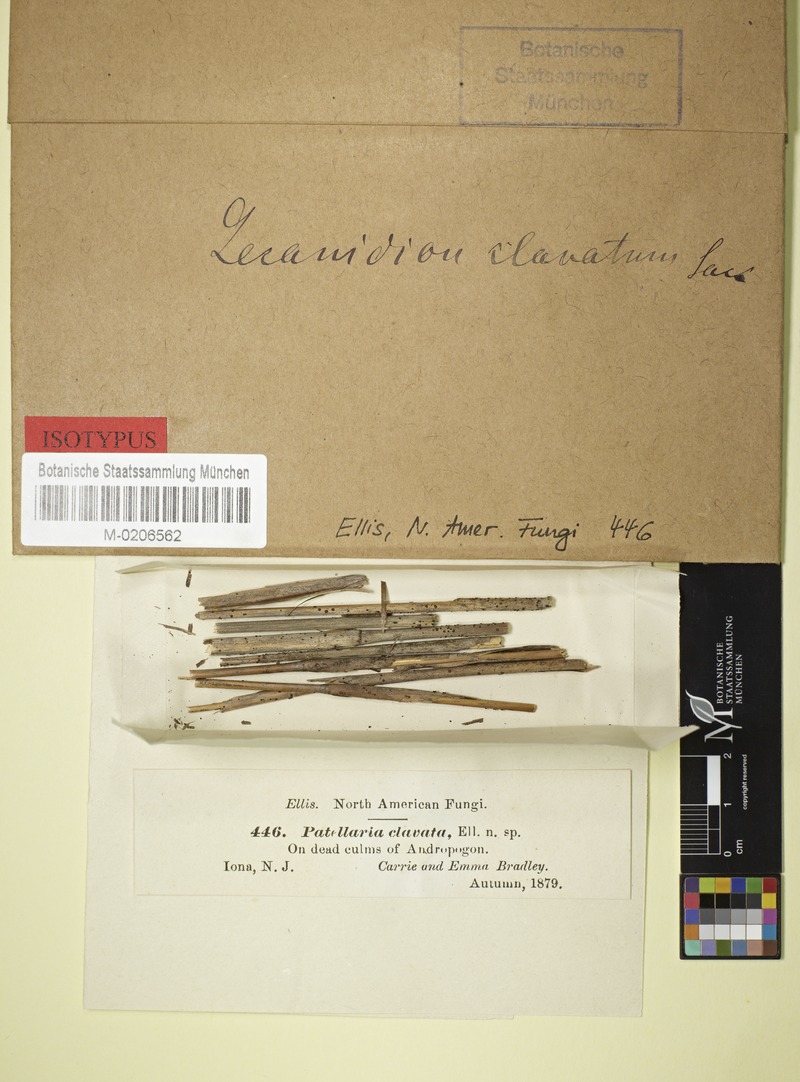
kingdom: Fungi
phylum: Ascomycota
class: Leotiomycetes
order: Helotiales
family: Lachnaceae
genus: Belonidium
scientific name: Belonidium clavatum
